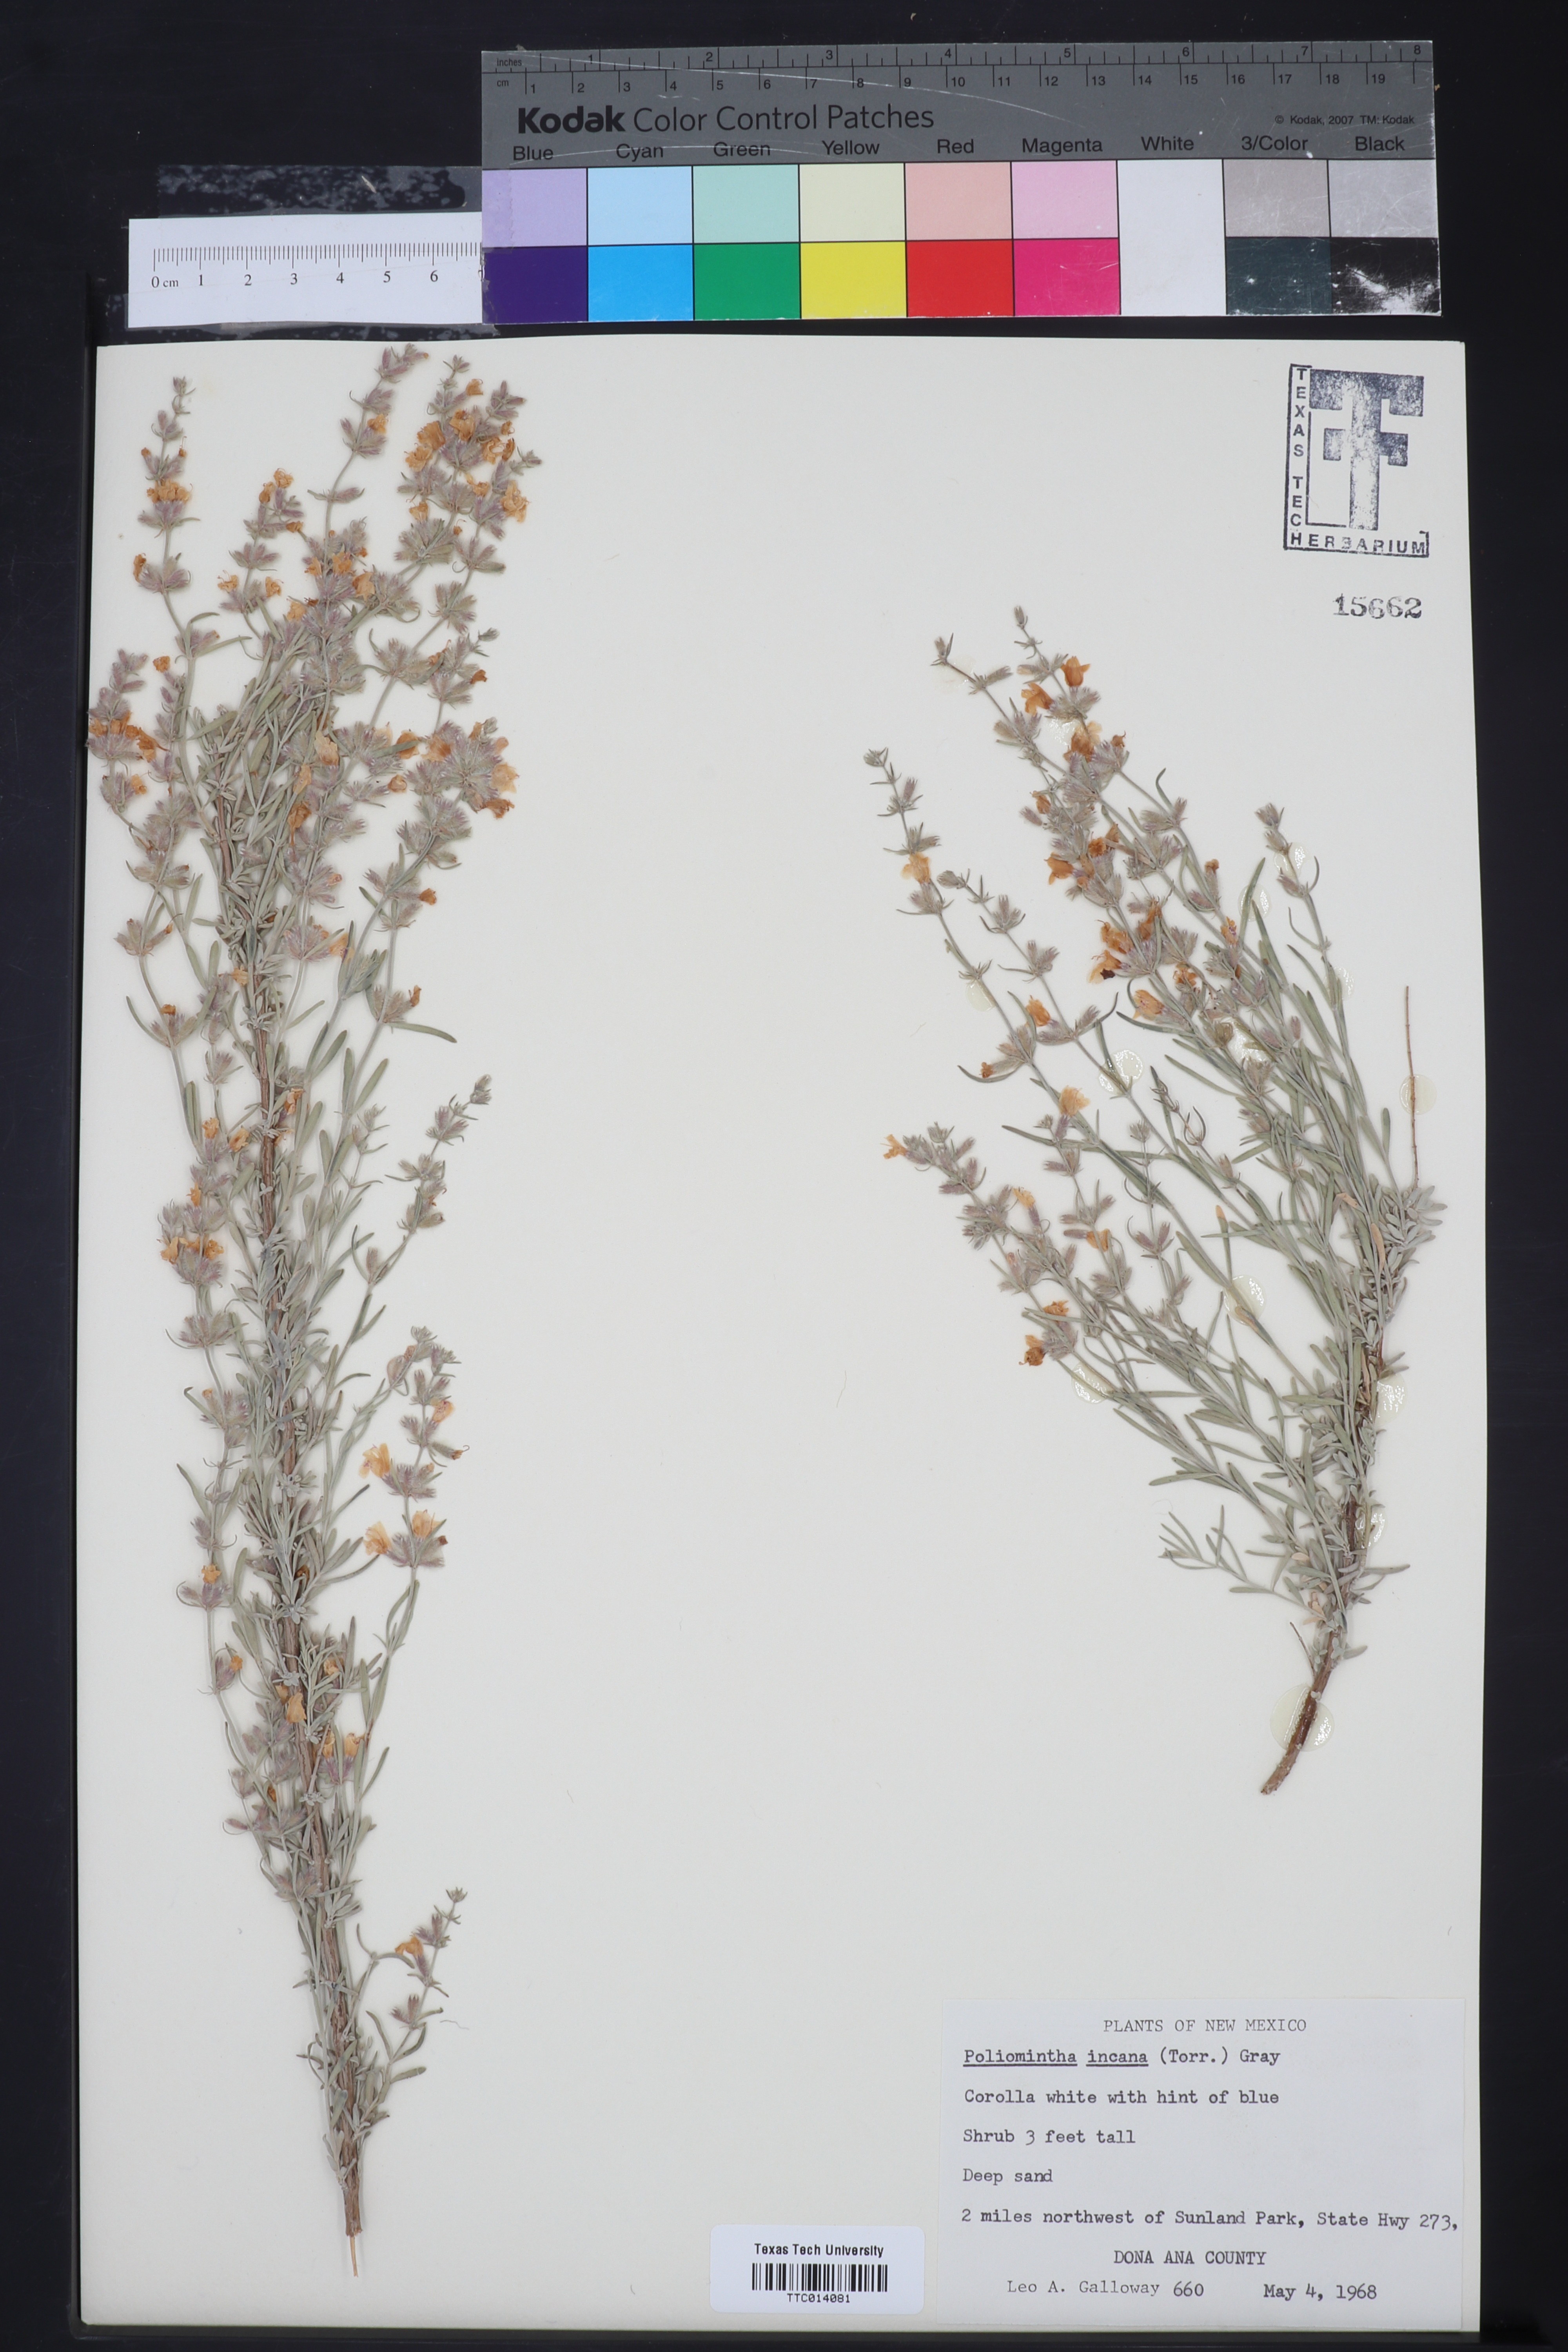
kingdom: Plantae
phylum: Tracheophyta
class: Magnoliopsida
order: Lamiales
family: Lamiaceae
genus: Poliomintha
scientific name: Poliomintha incana
